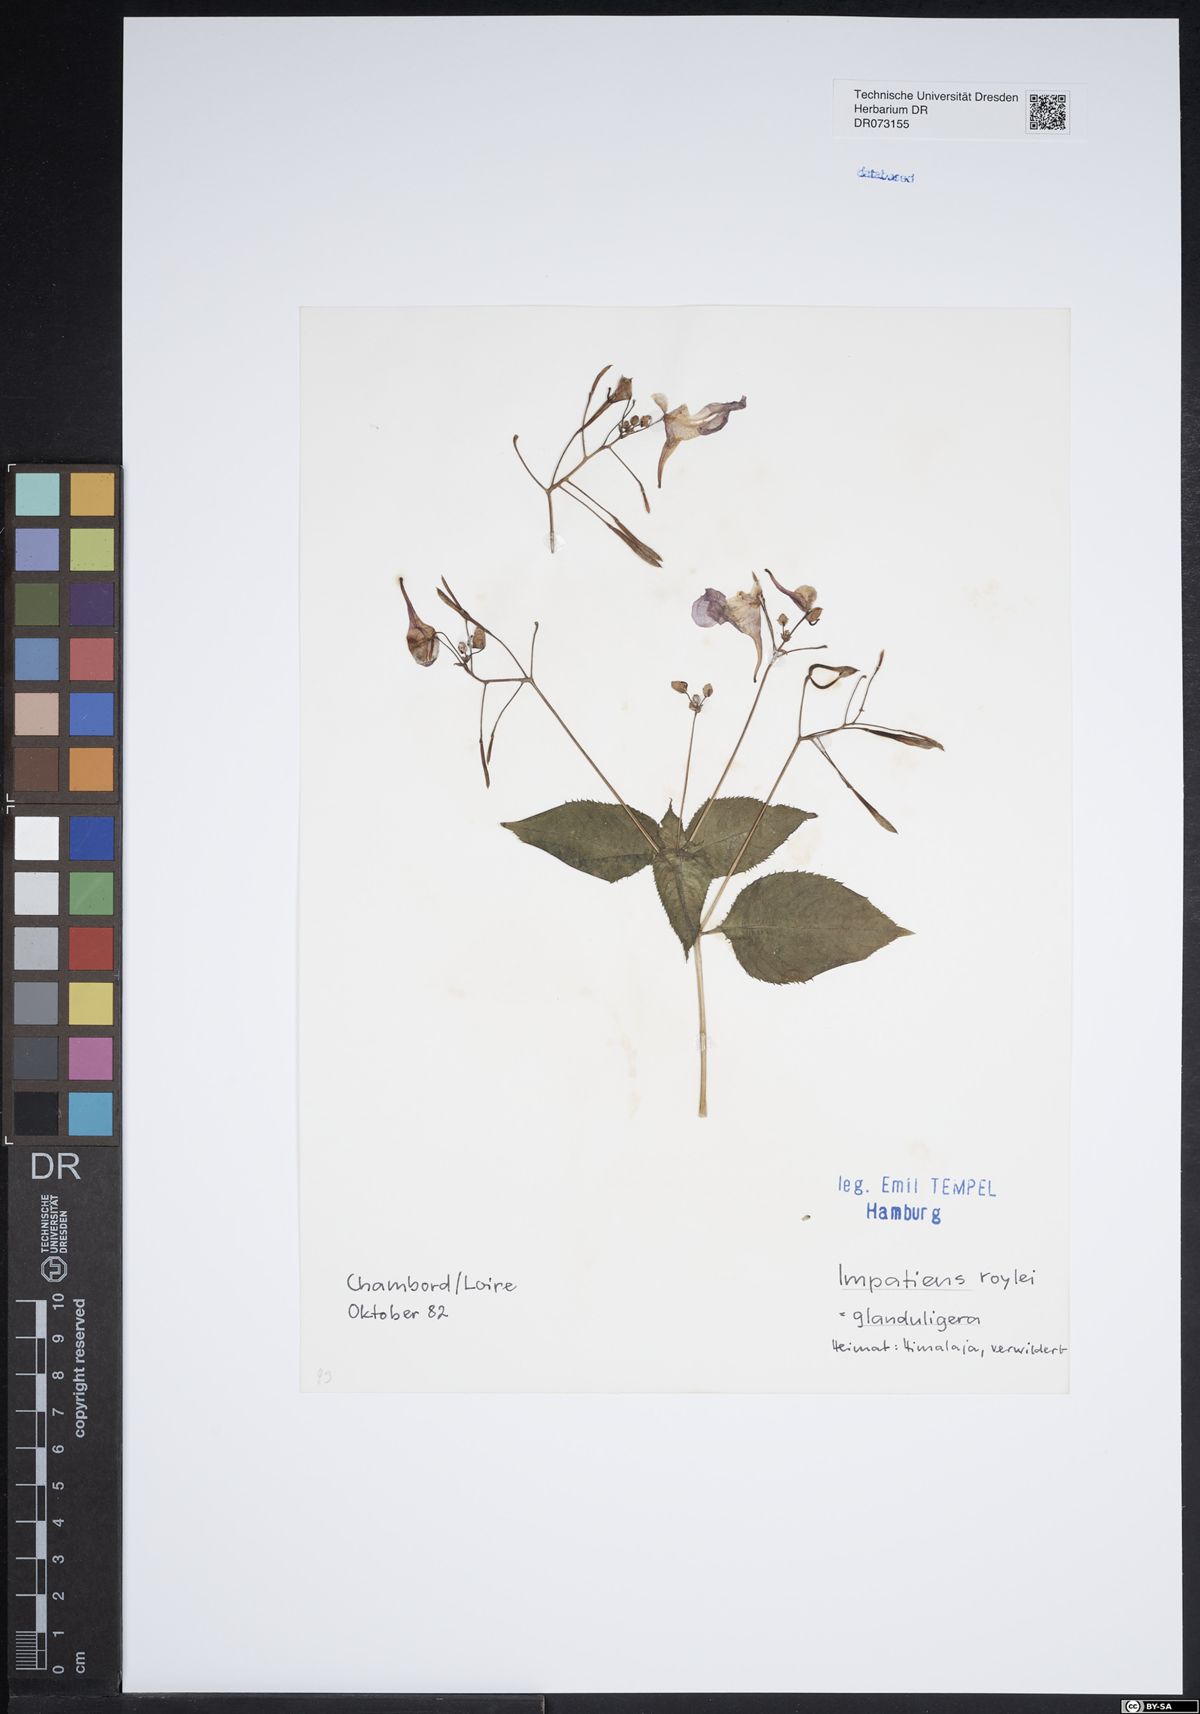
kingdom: Plantae
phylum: Tracheophyta
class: Magnoliopsida
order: Ericales
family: Balsaminaceae
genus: Impatiens
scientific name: Impatiens bicolor
